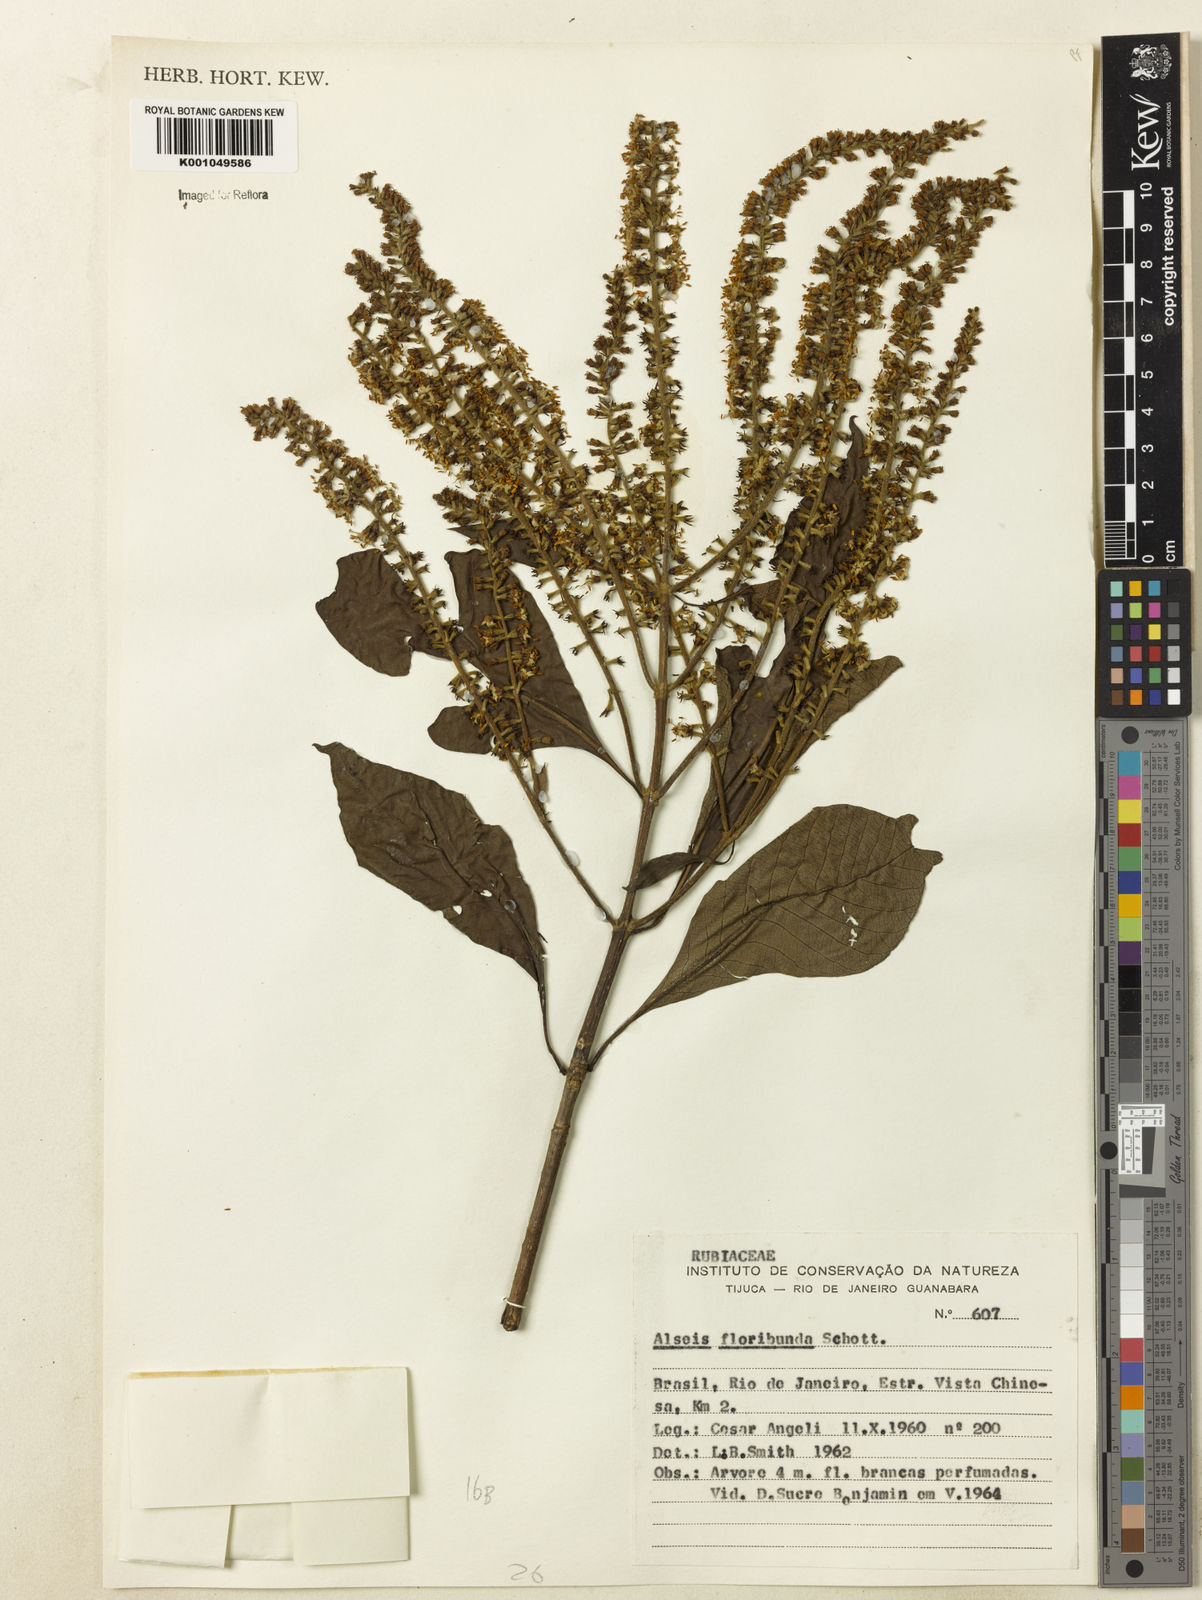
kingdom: Plantae
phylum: Tracheophyta
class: Magnoliopsida
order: Gentianales
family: Rubiaceae
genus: Alseis
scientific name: Alseis floribunda
